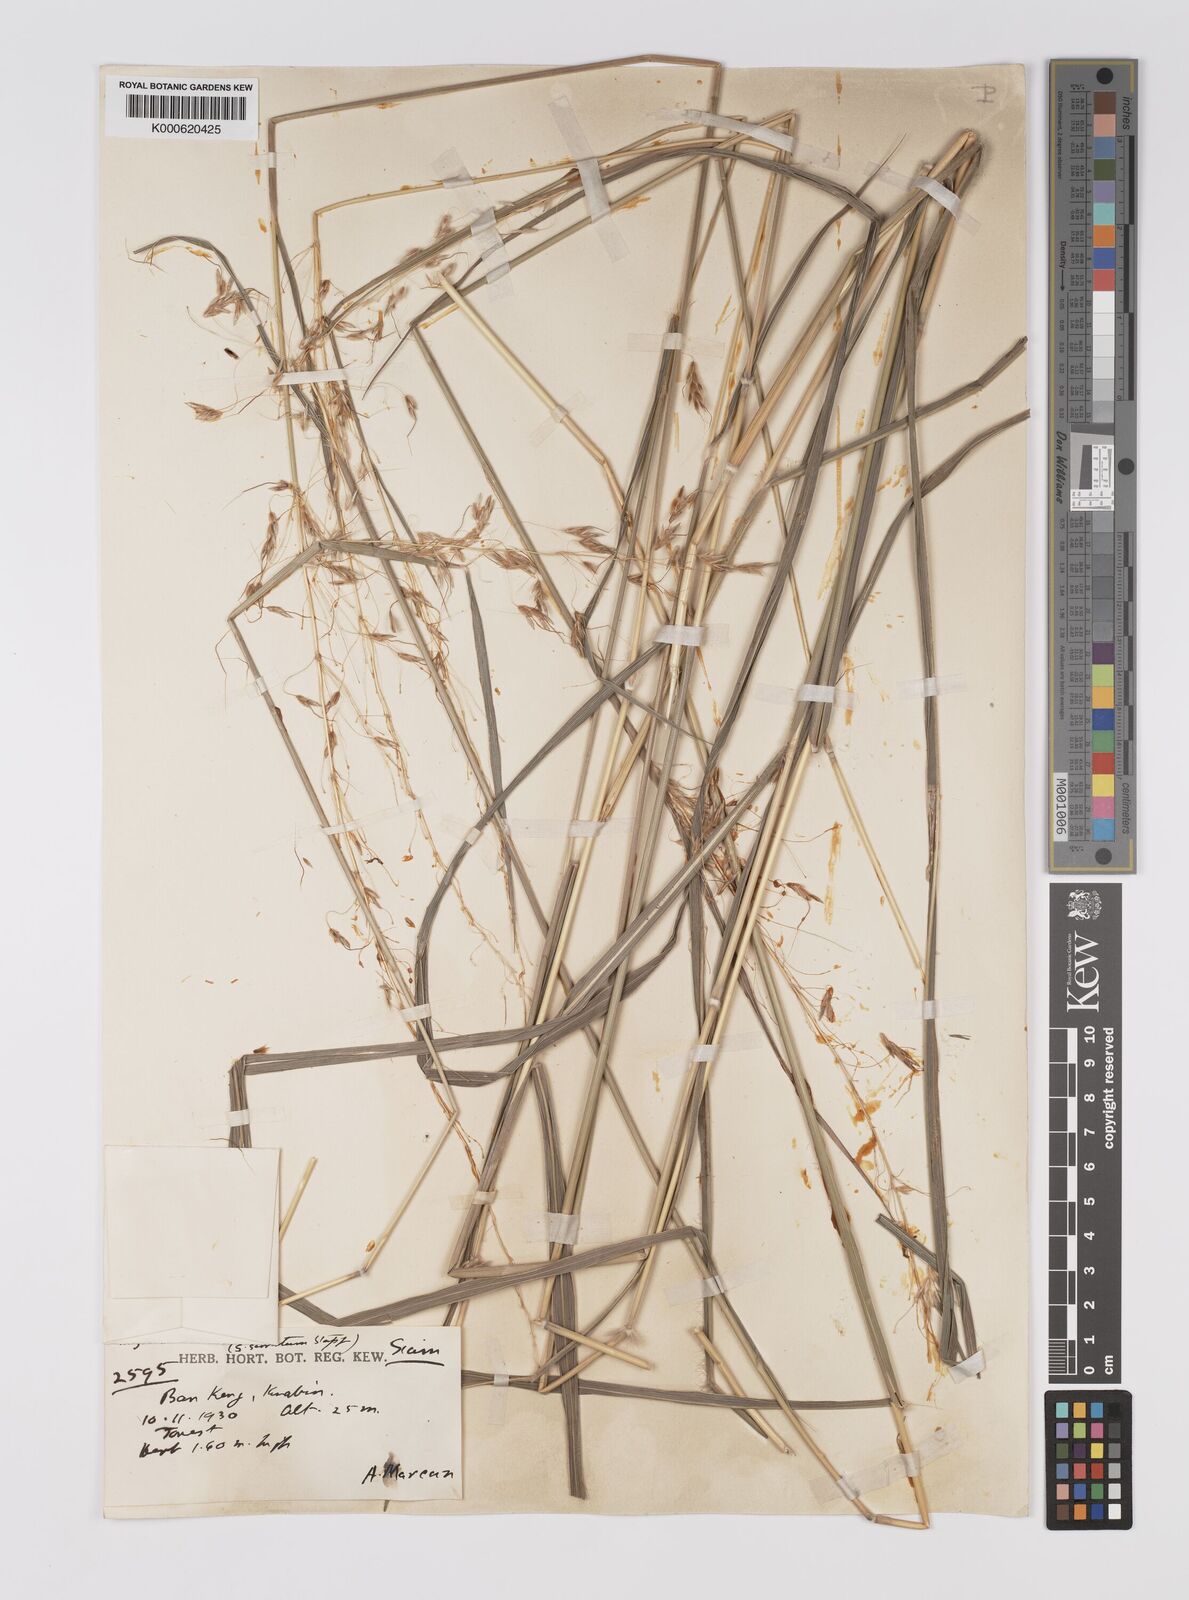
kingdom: Plantae
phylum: Tracheophyta
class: Liliopsida
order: Poales
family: Poaceae
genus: Sorghum
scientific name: Sorghum nitidum
